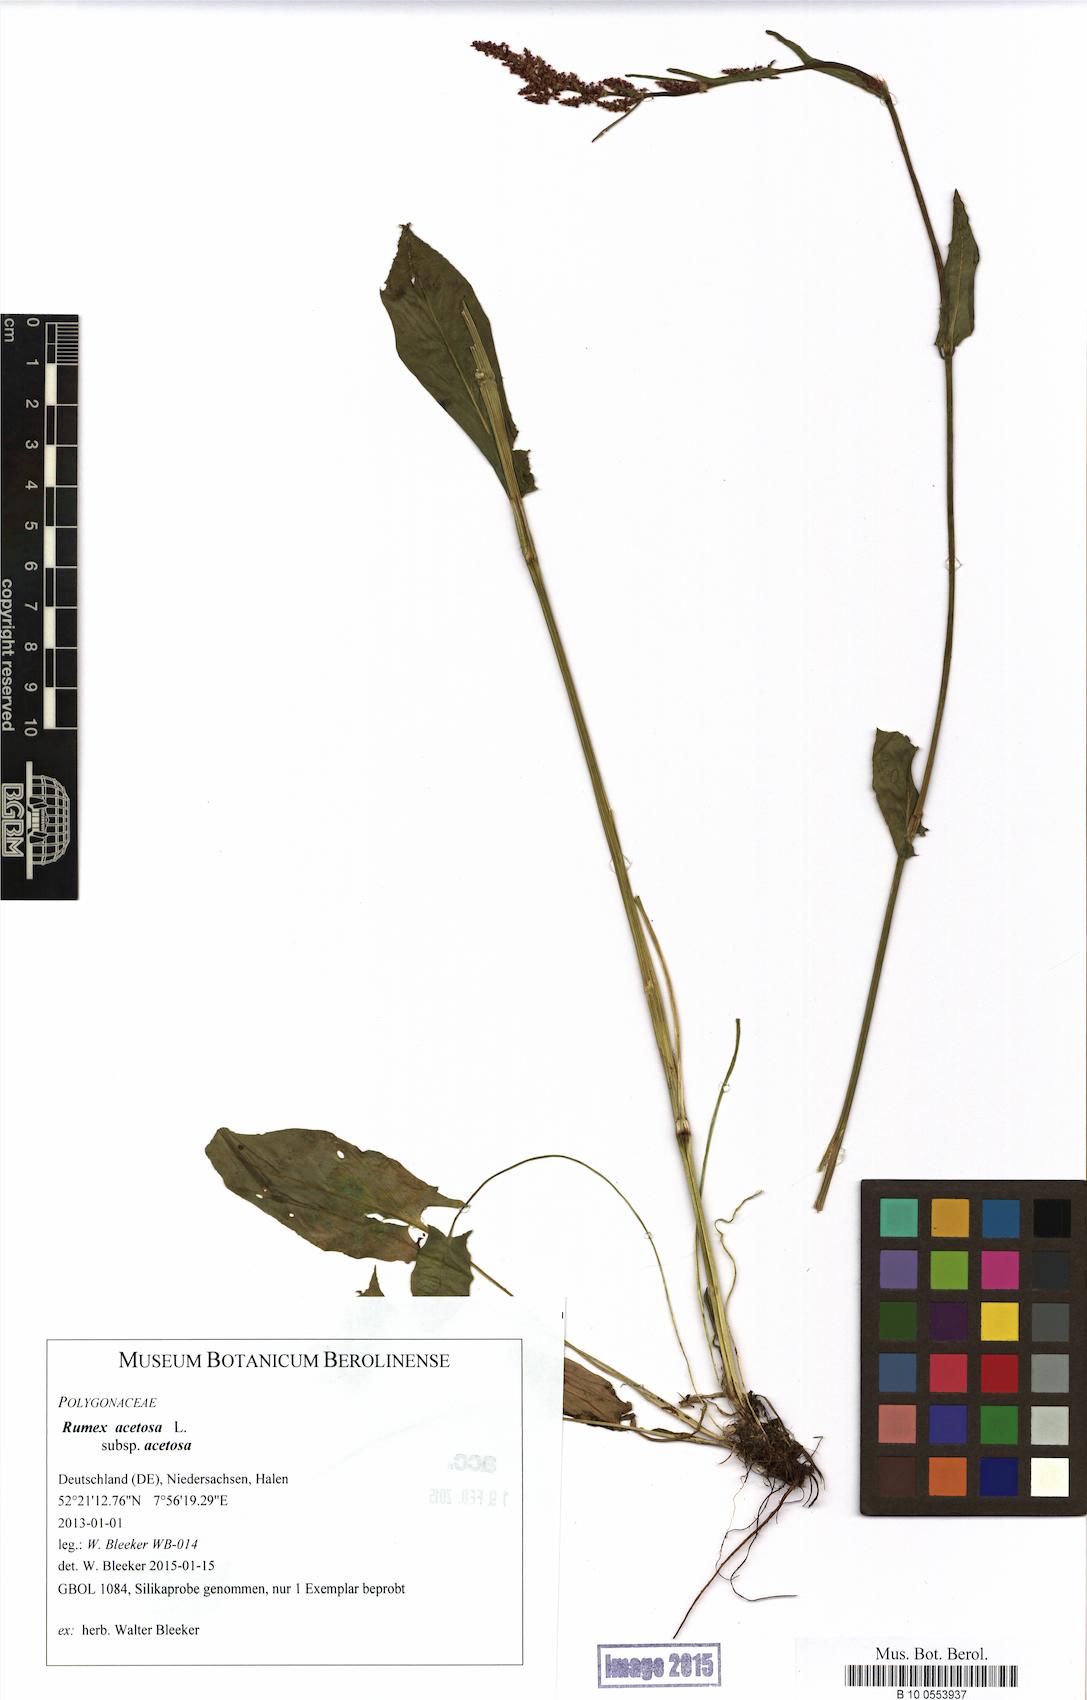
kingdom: Plantae
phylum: Tracheophyta
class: Magnoliopsida
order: Caryophyllales
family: Polygonaceae
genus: Rumex
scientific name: Rumex acetosa
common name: Garden sorrel
